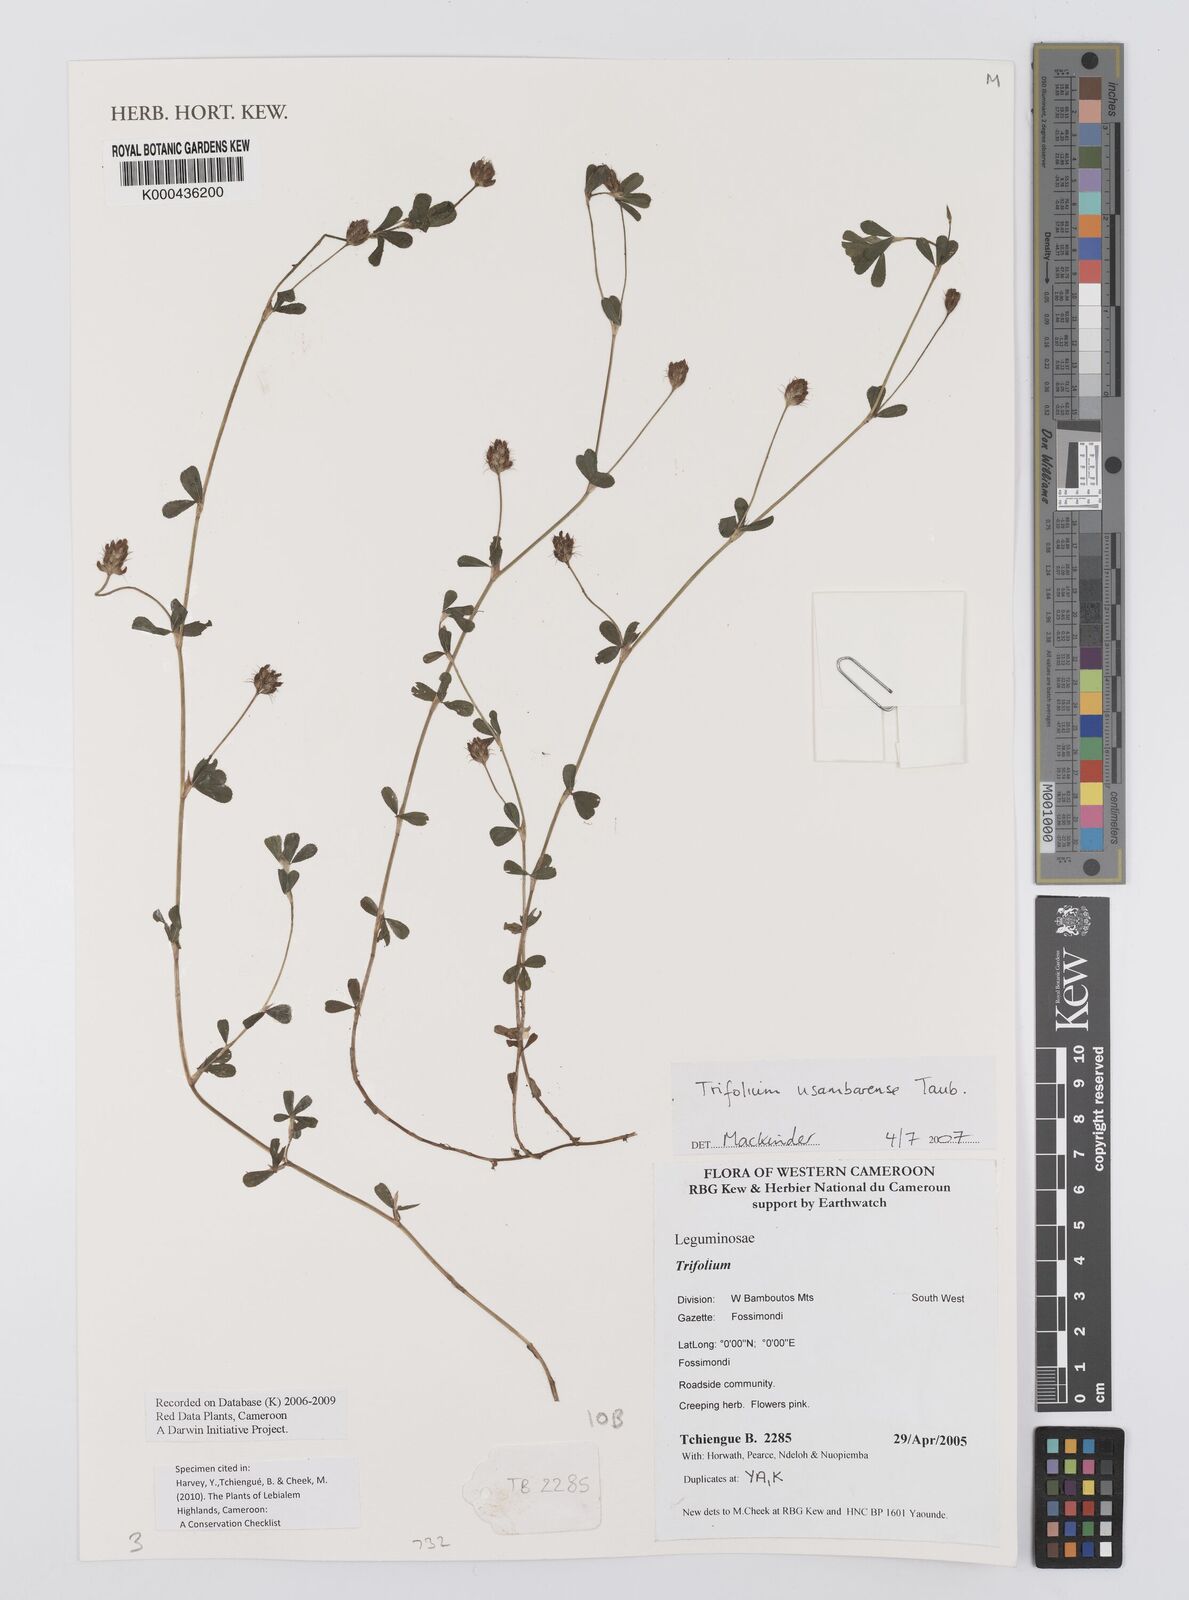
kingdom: Plantae
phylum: Tracheophyta
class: Magnoliopsida
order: Fabales
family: Fabaceae
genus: Trifolium
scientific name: Trifolium usambarense
